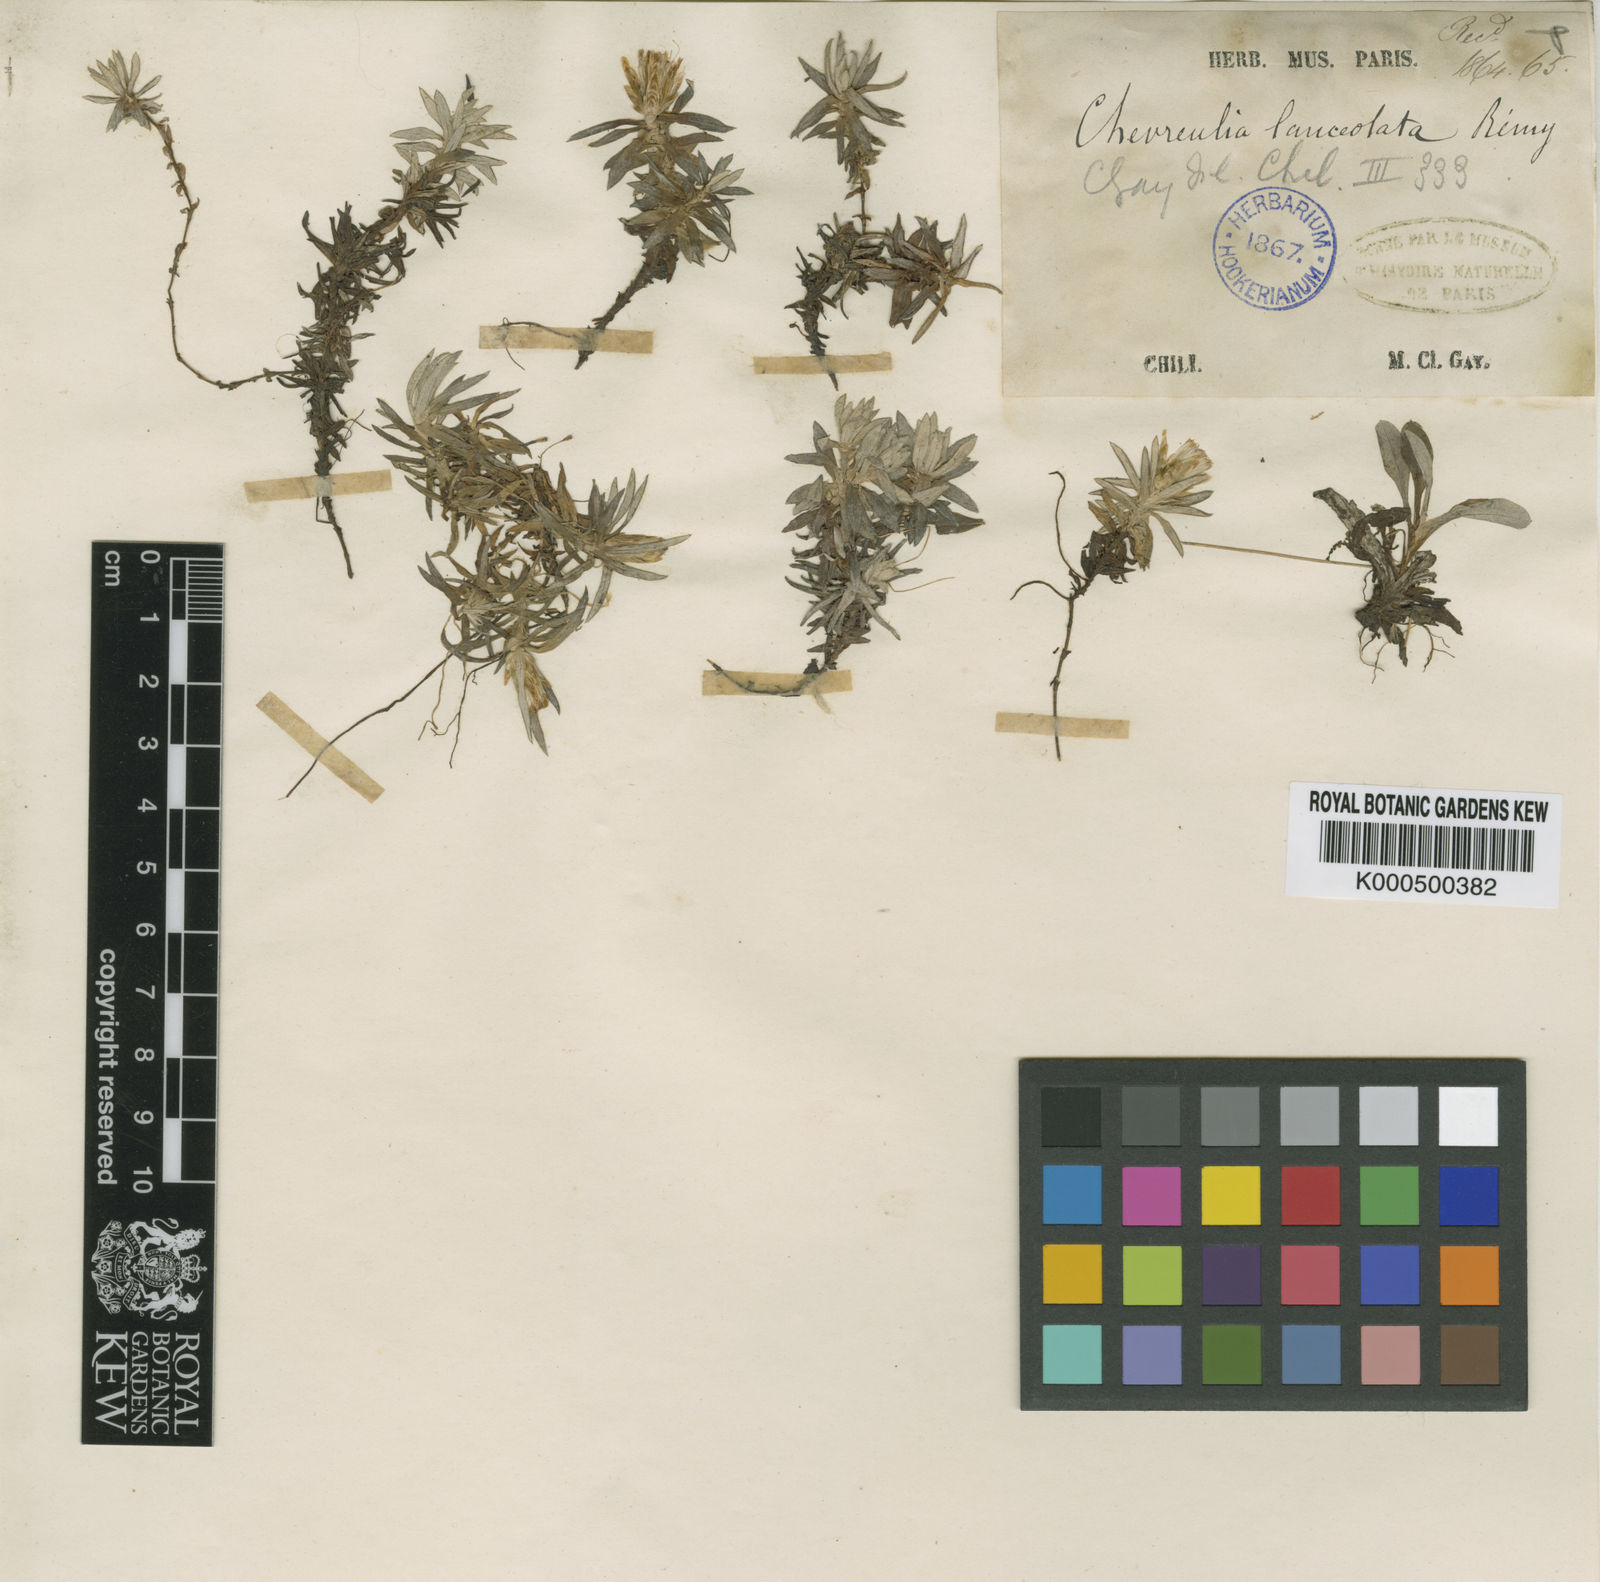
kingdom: Plantae
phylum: Tracheophyta
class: Magnoliopsida
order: Asterales
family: Asteraceae
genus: Chevreulia
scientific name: Chevreulia pusilla
